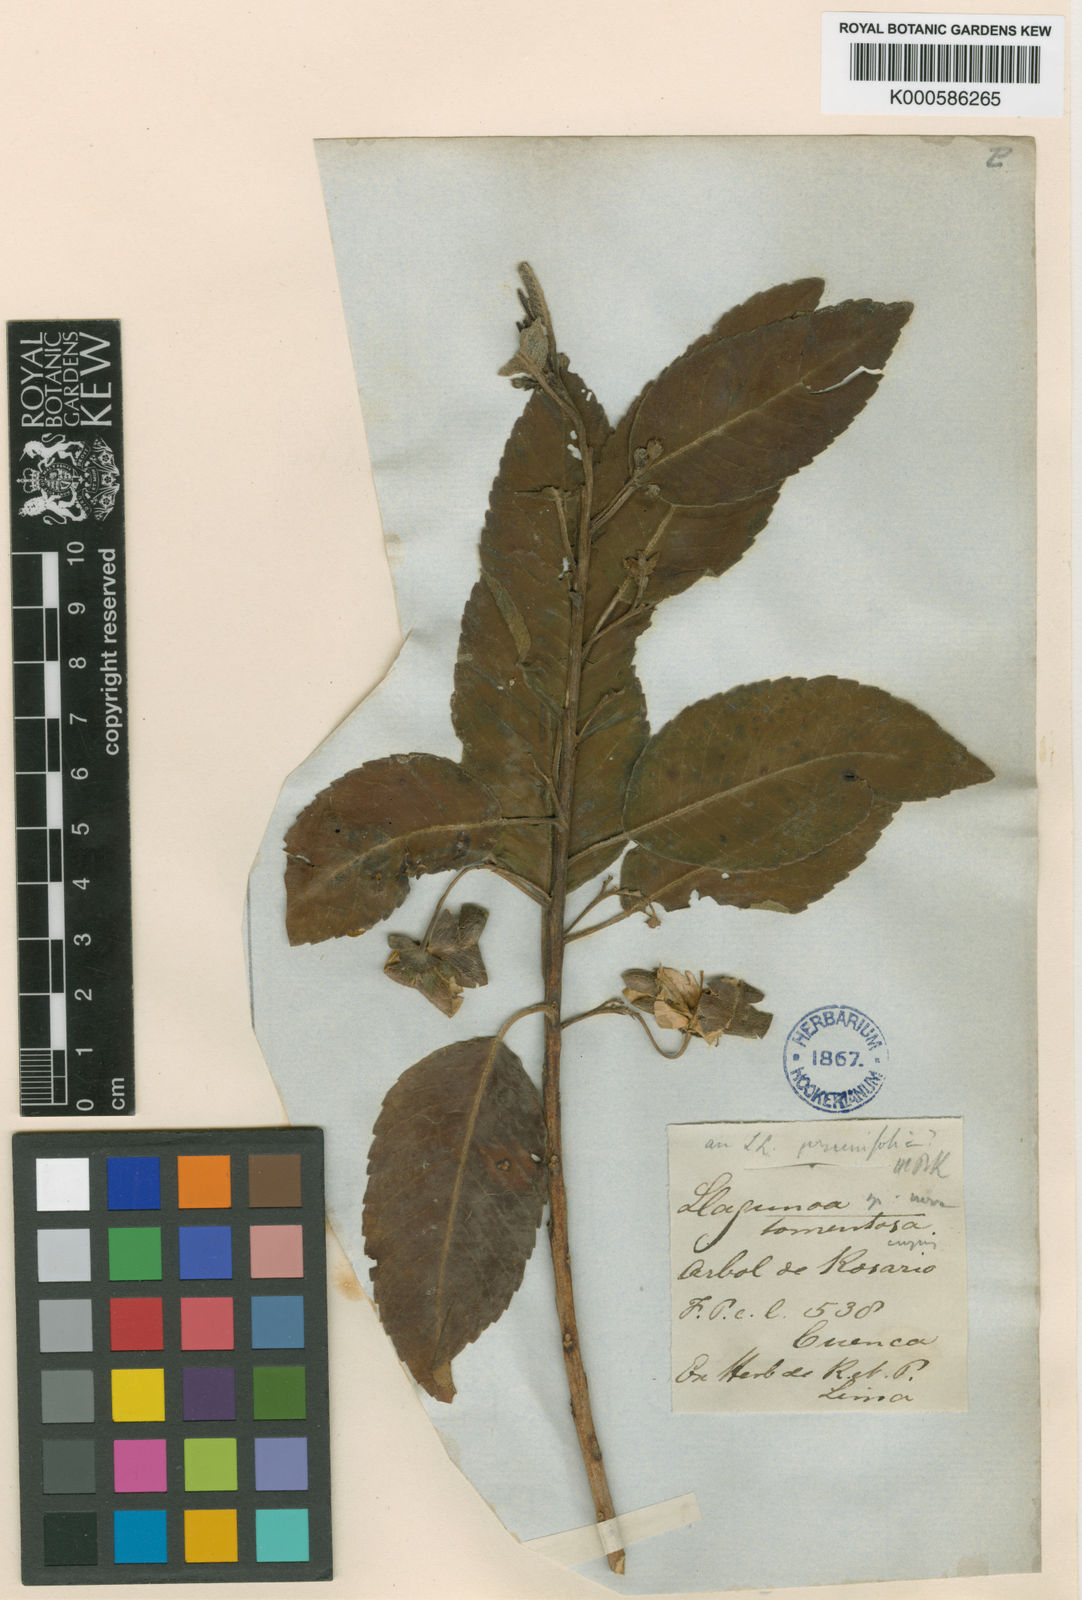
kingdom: Plantae
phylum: Tracheophyta
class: Magnoliopsida
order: Sapindales
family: Sapindaceae
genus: Llagunoa
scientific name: Llagunoa nitida
